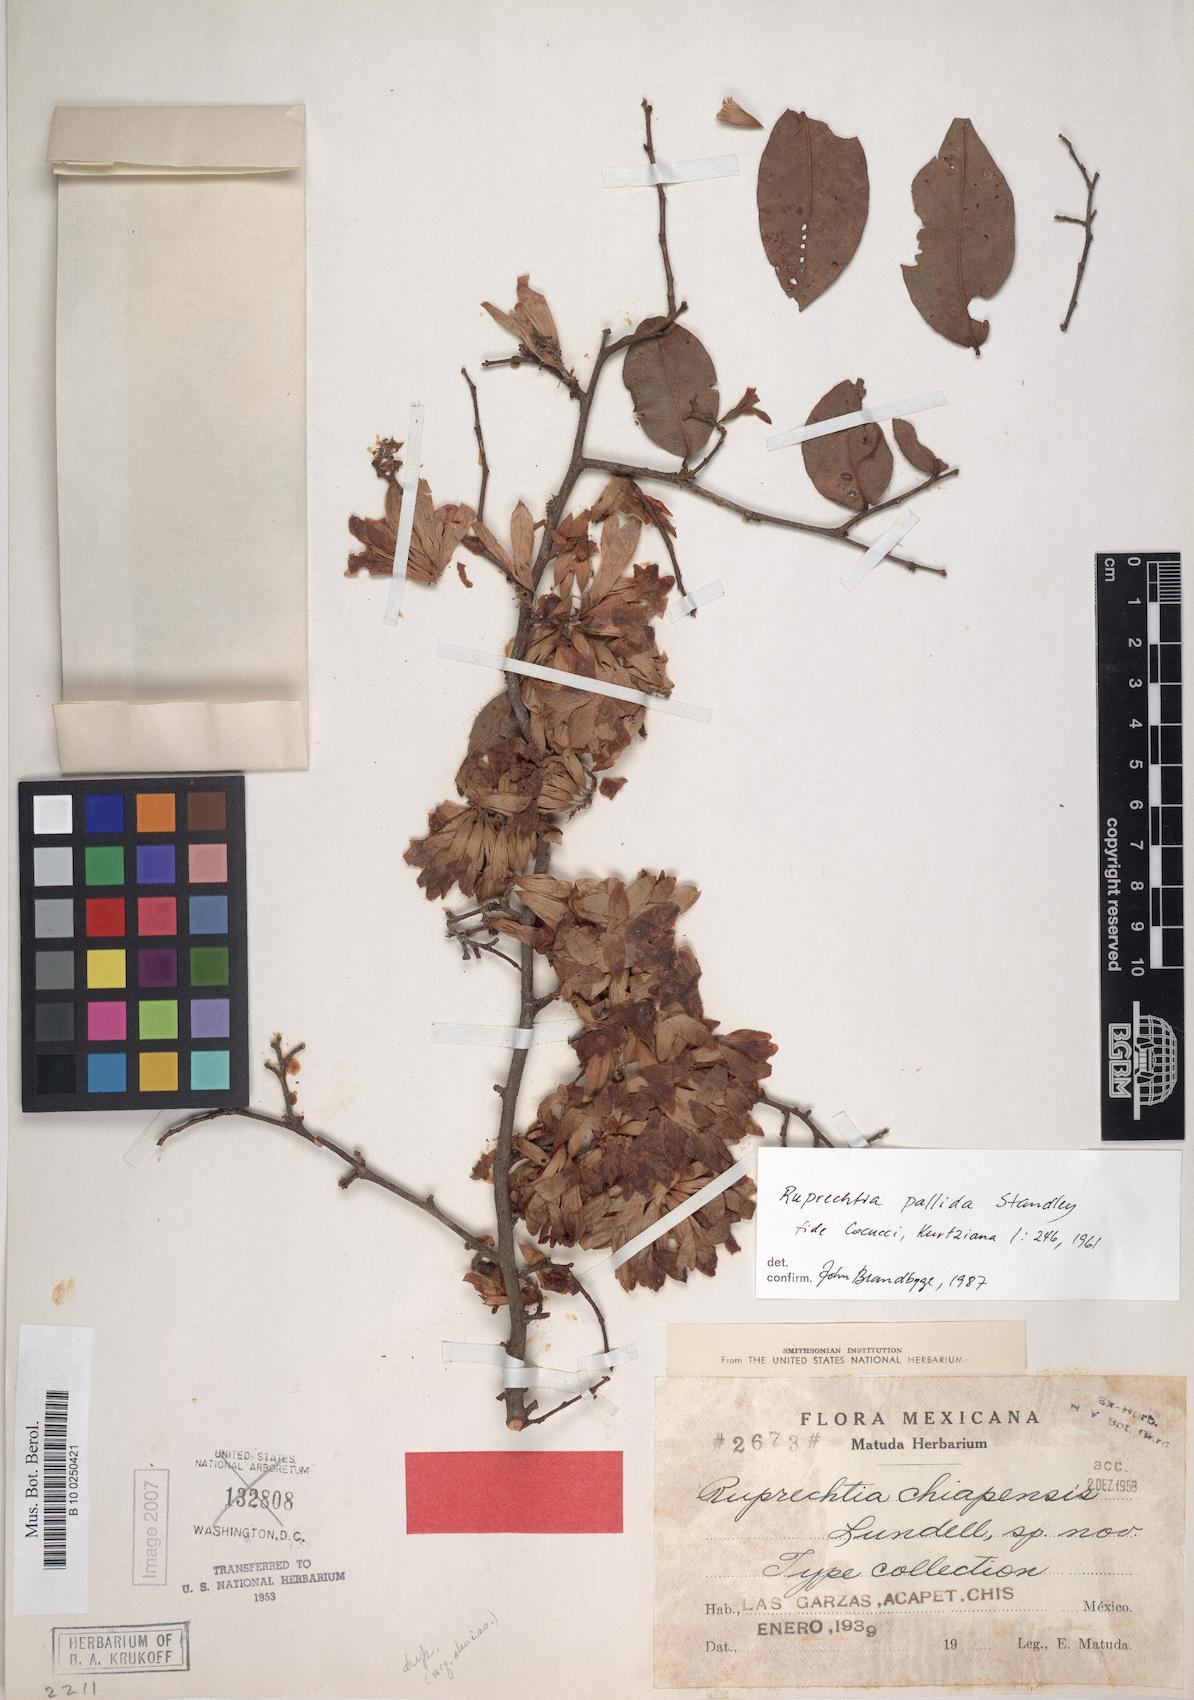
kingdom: Plantae
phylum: Tracheophyta
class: Magnoliopsida
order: Caryophyllales
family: Polygonaceae
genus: Ruprechtia
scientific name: Ruprechtia chiapensis
